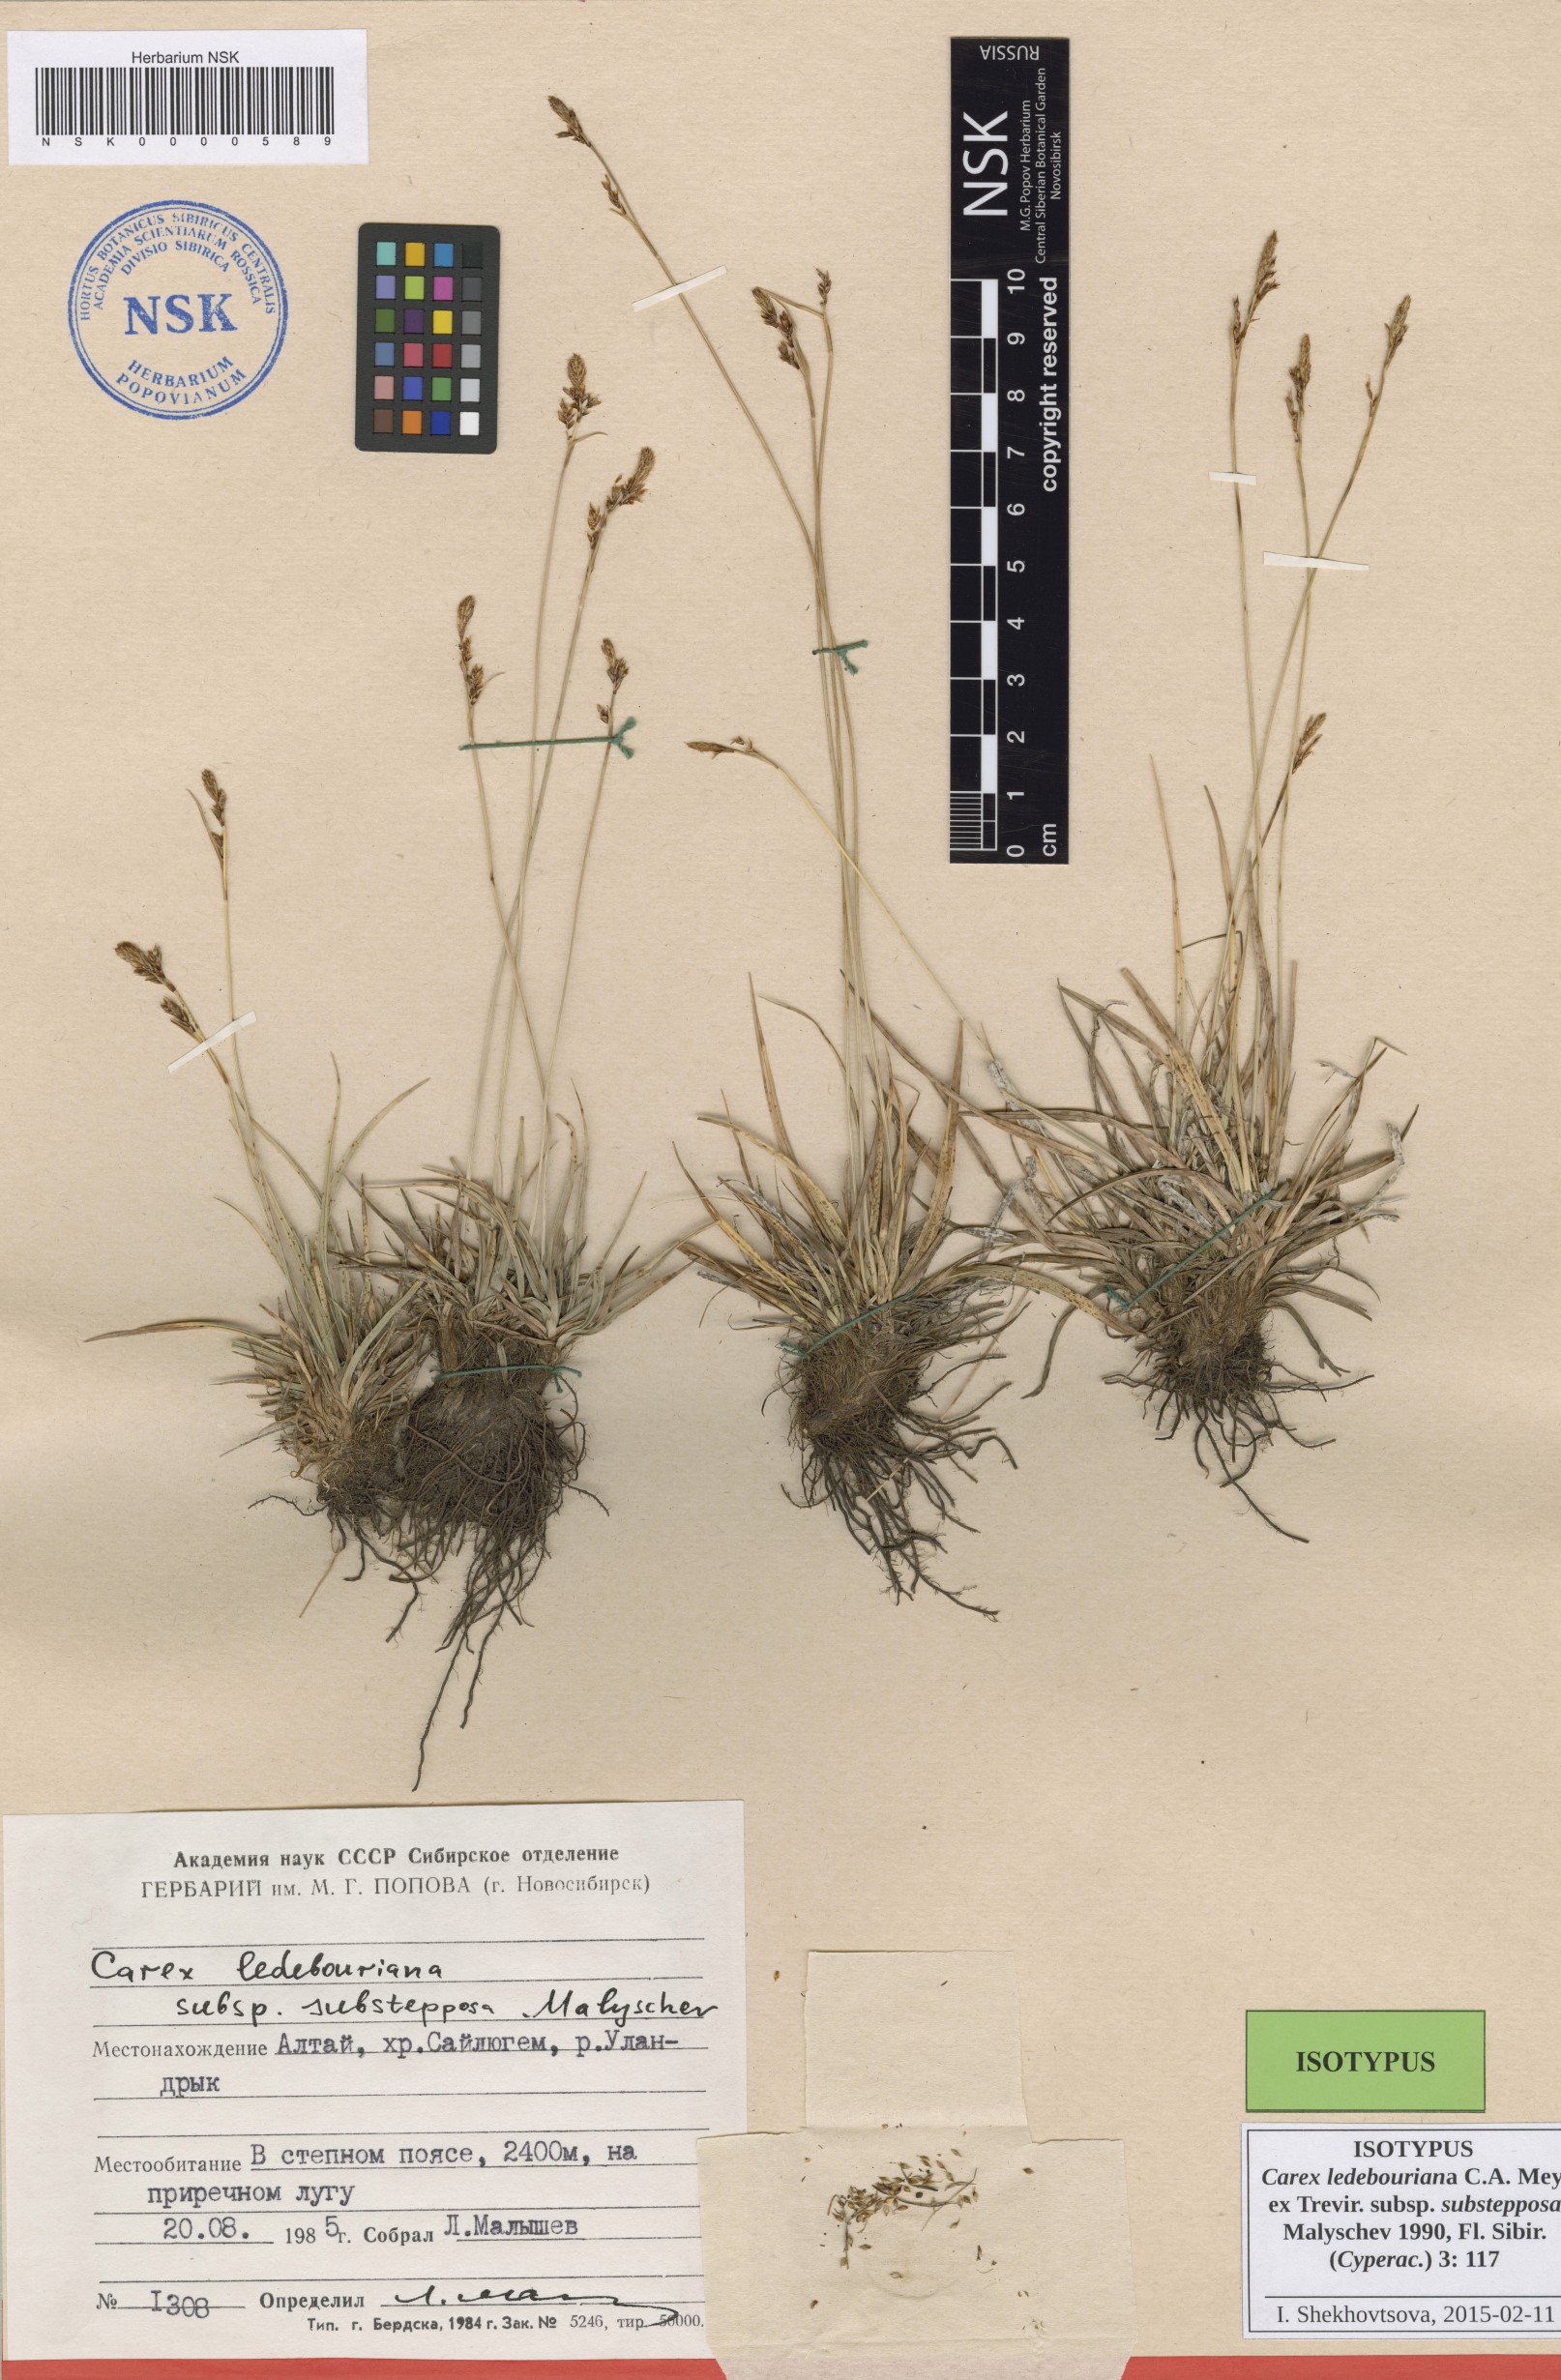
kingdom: Plantae
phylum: Tracheophyta
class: Liliopsida
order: Poales
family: Cyperaceae
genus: Carex
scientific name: Carex ledebouriana
